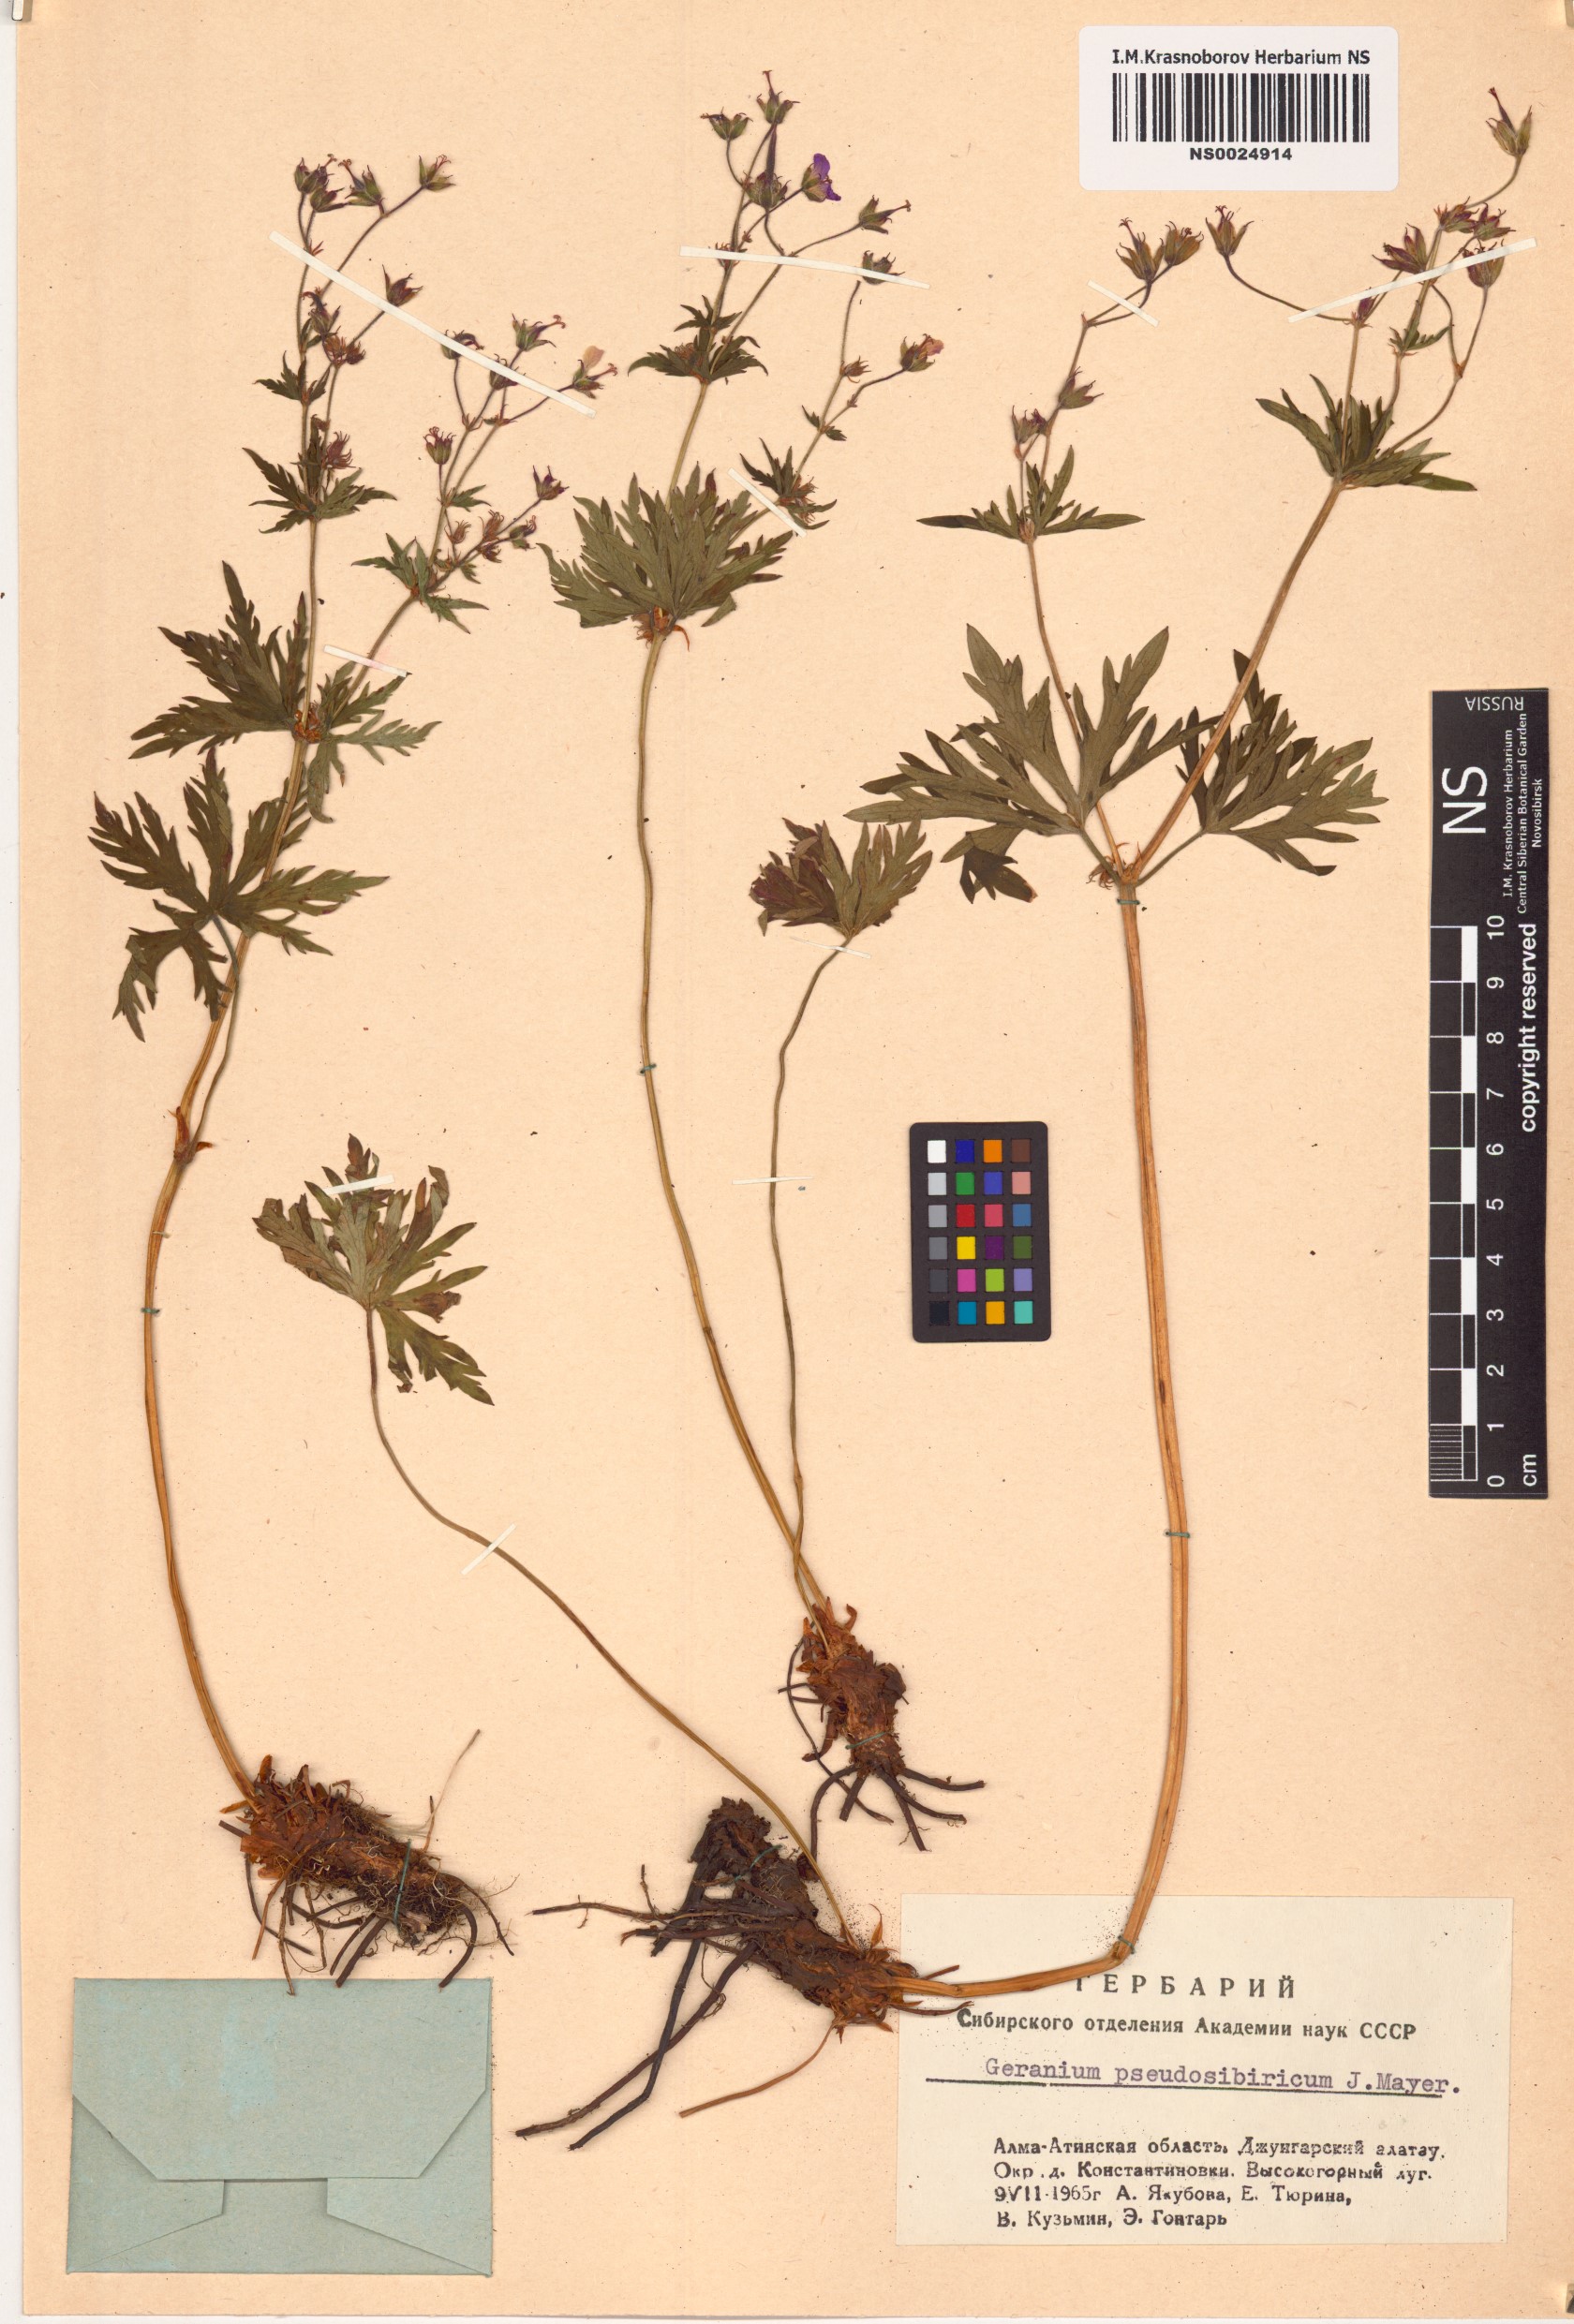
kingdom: Plantae
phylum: Tracheophyta
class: Magnoliopsida
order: Geraniales
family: Geraniaceae
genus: Geranium
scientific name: Geranium pseudosibiricum
